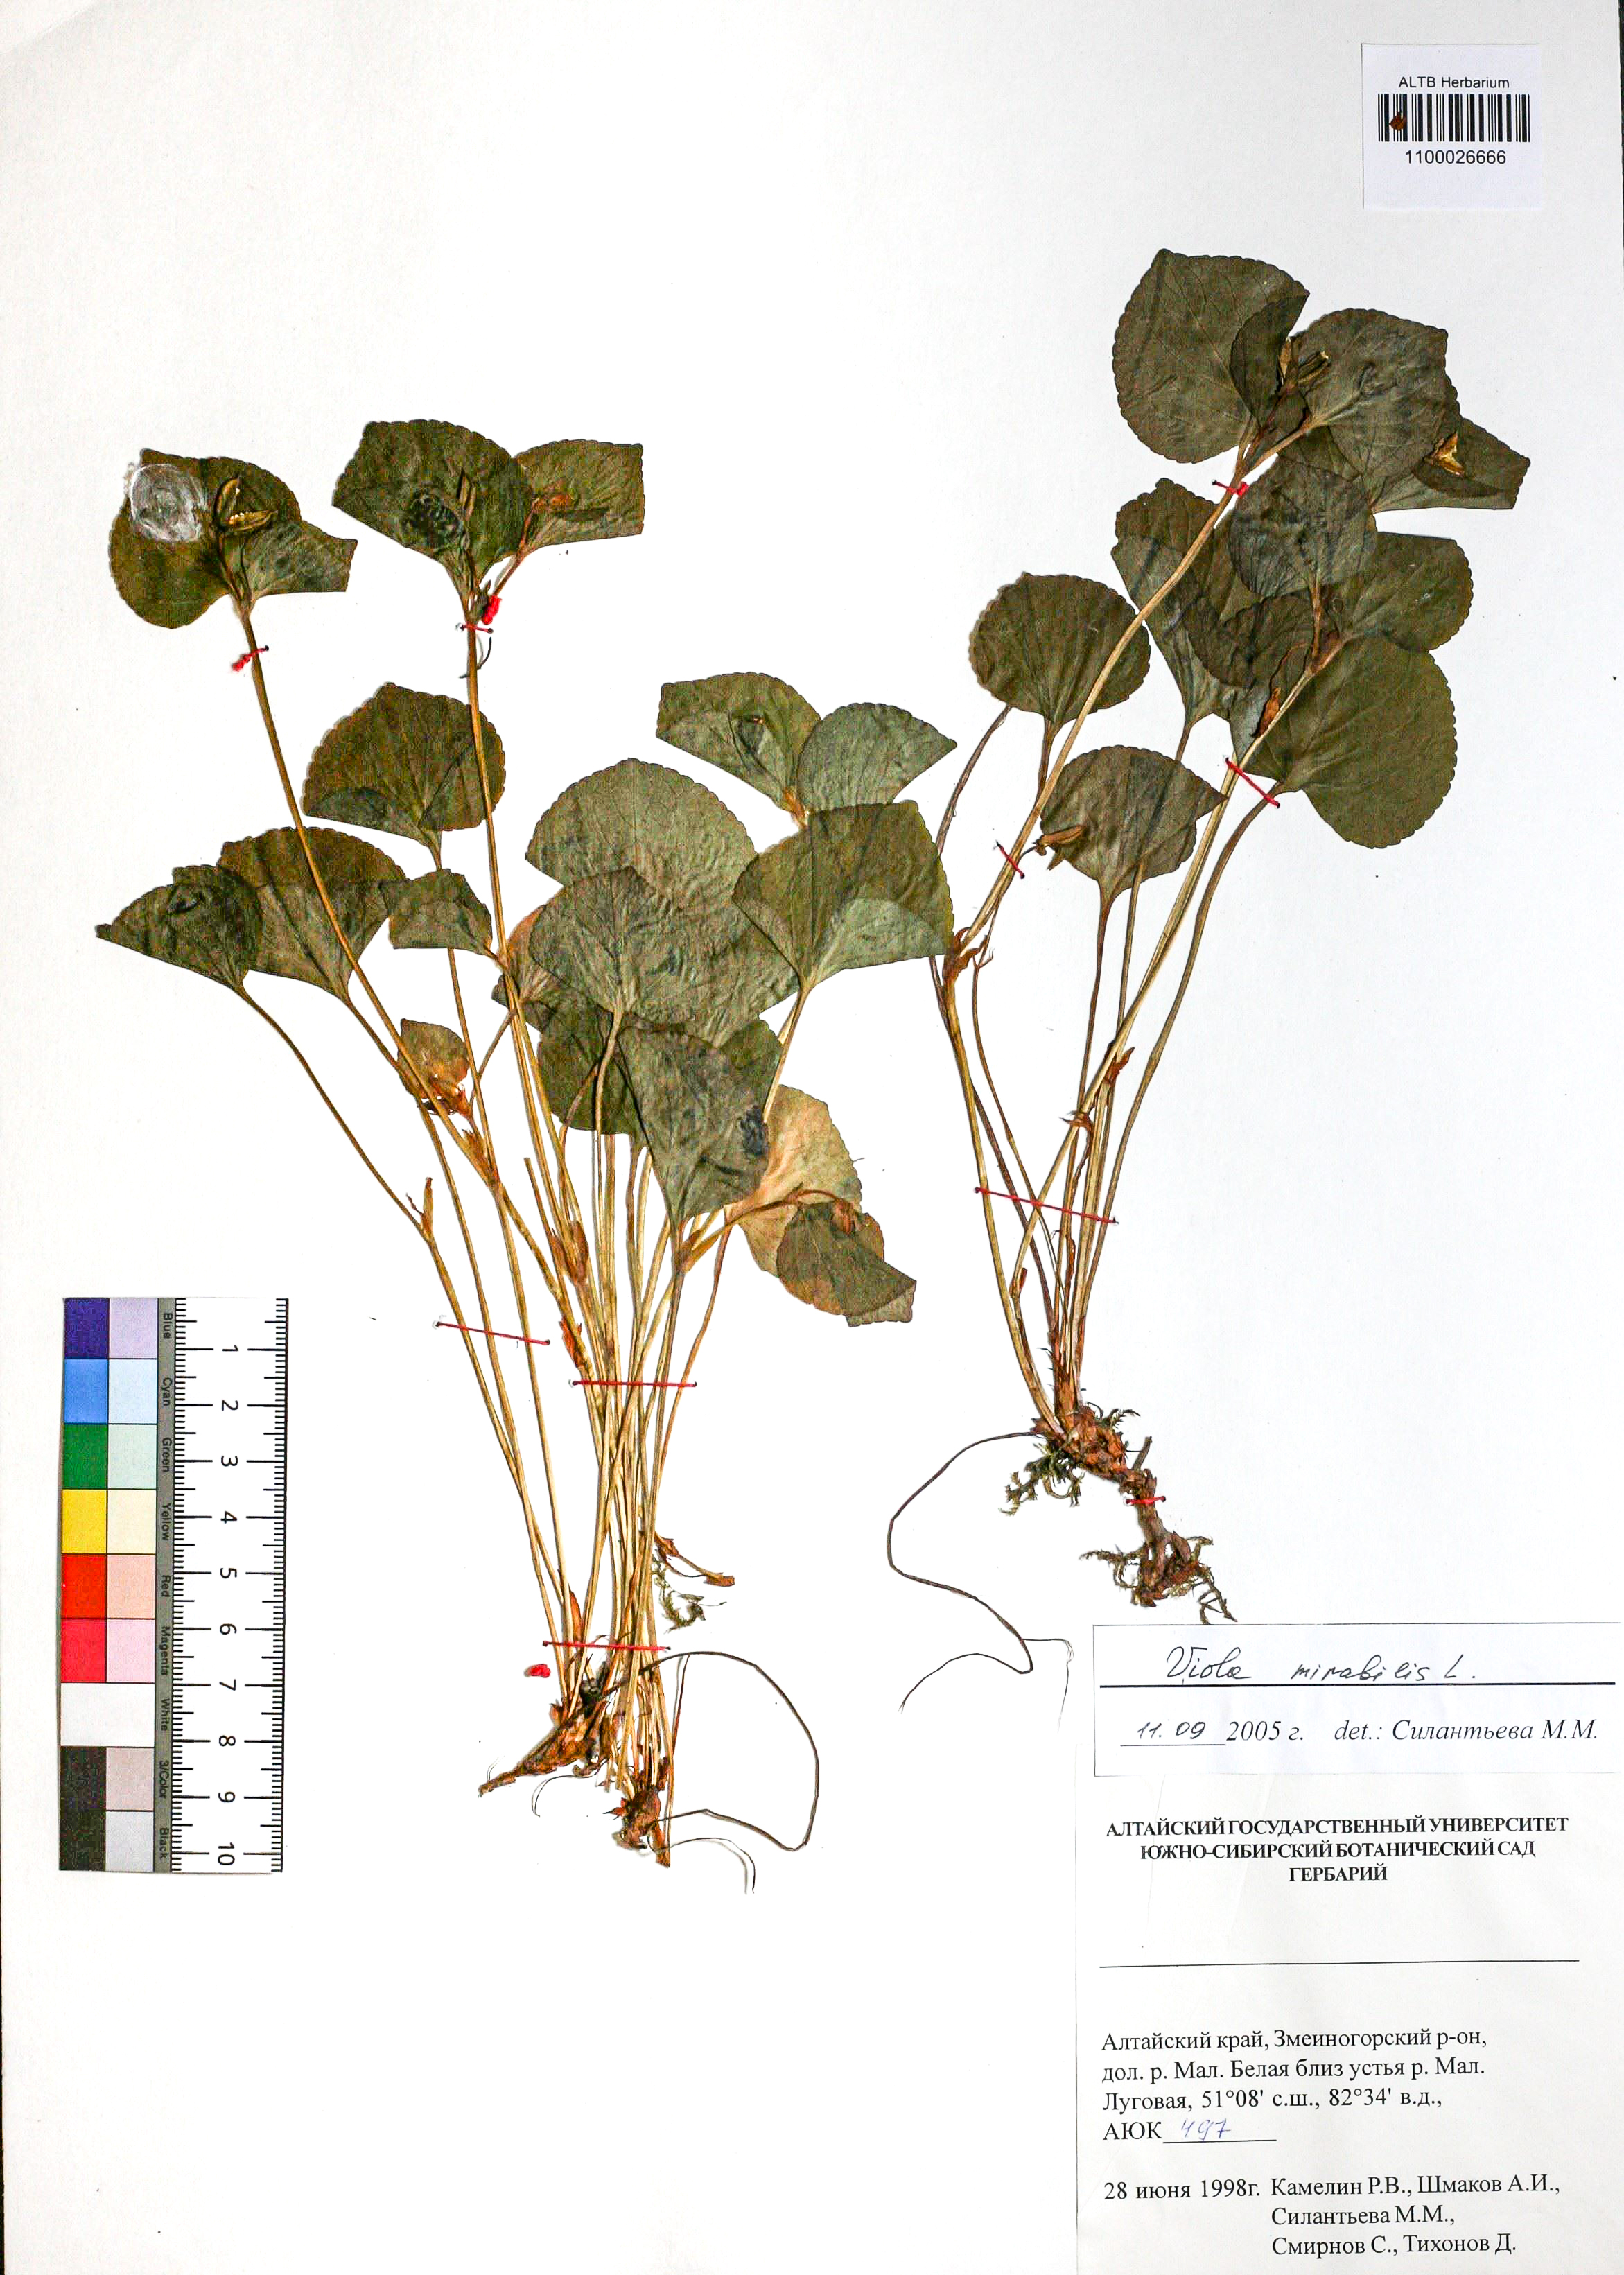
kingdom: Plantae
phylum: Tracheophyta
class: Magnoliopsida
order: Malpighiales
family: Violaceae
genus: Viola
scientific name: Viola mirabilis
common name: Wonder violet
